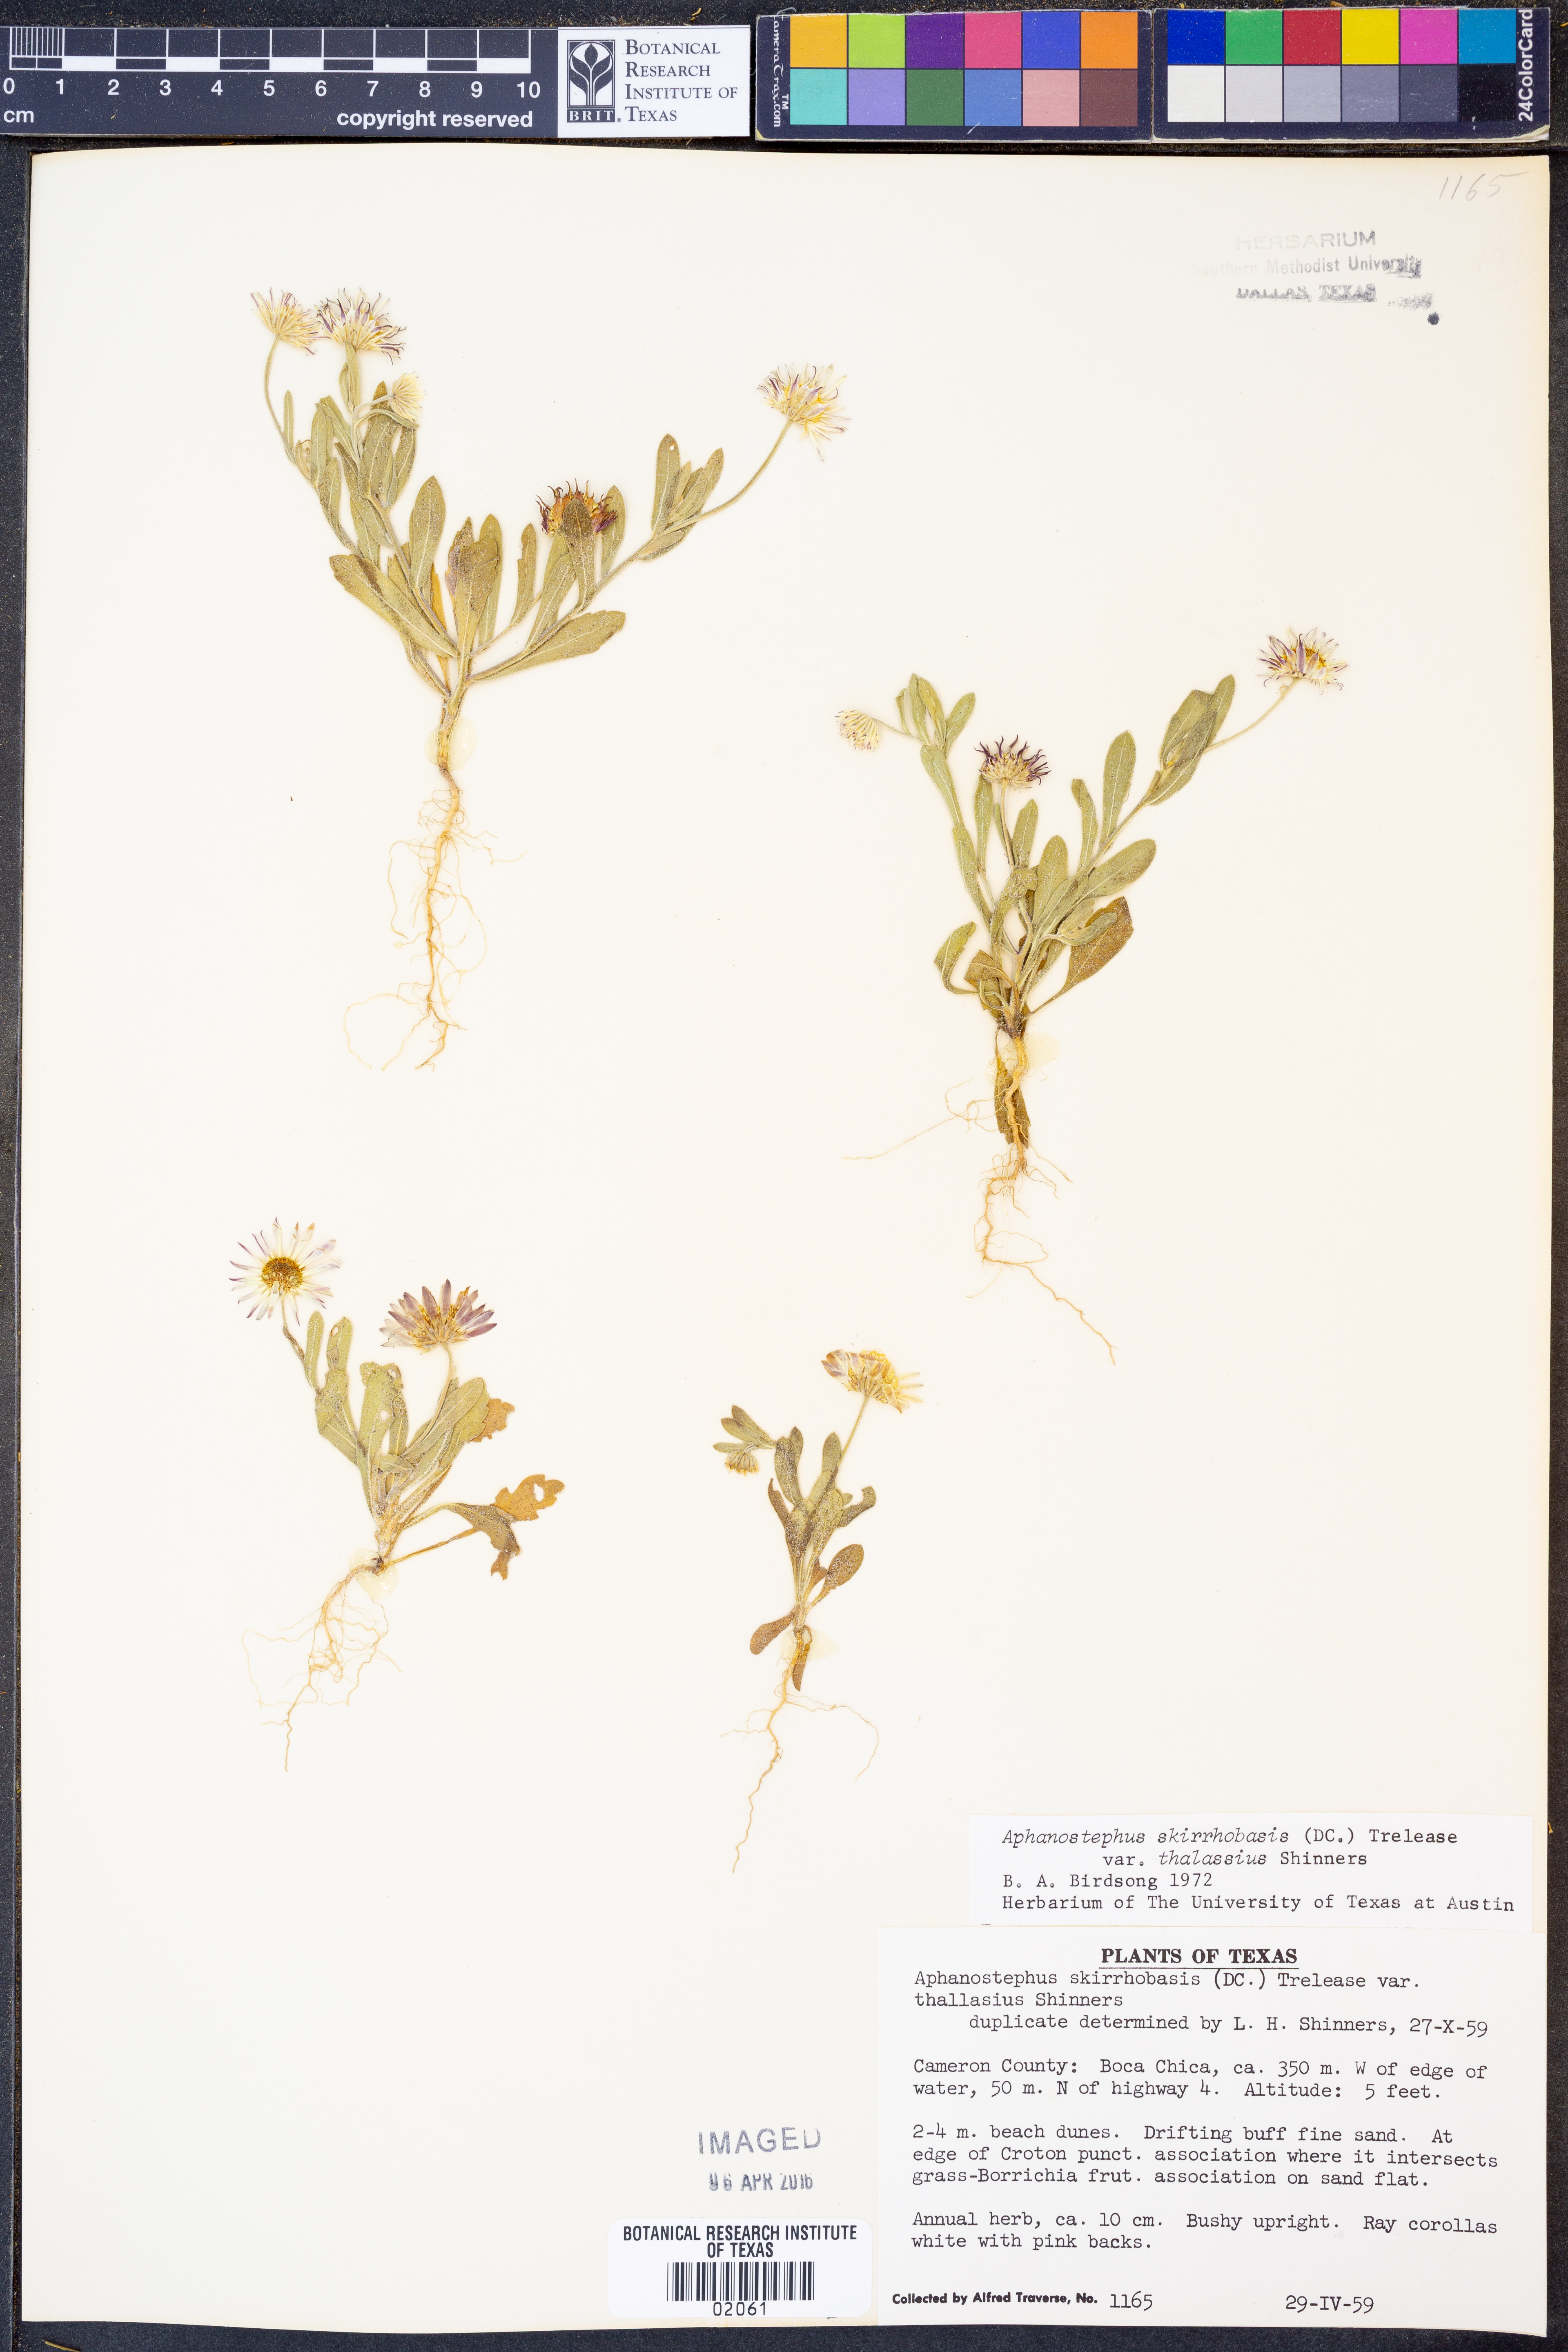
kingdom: Plantae
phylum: Tracheophyta
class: Magnoliopsida
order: Asterales
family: Asteraceae
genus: Aphanostephus
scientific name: Aphanostephus skirrhobasis
